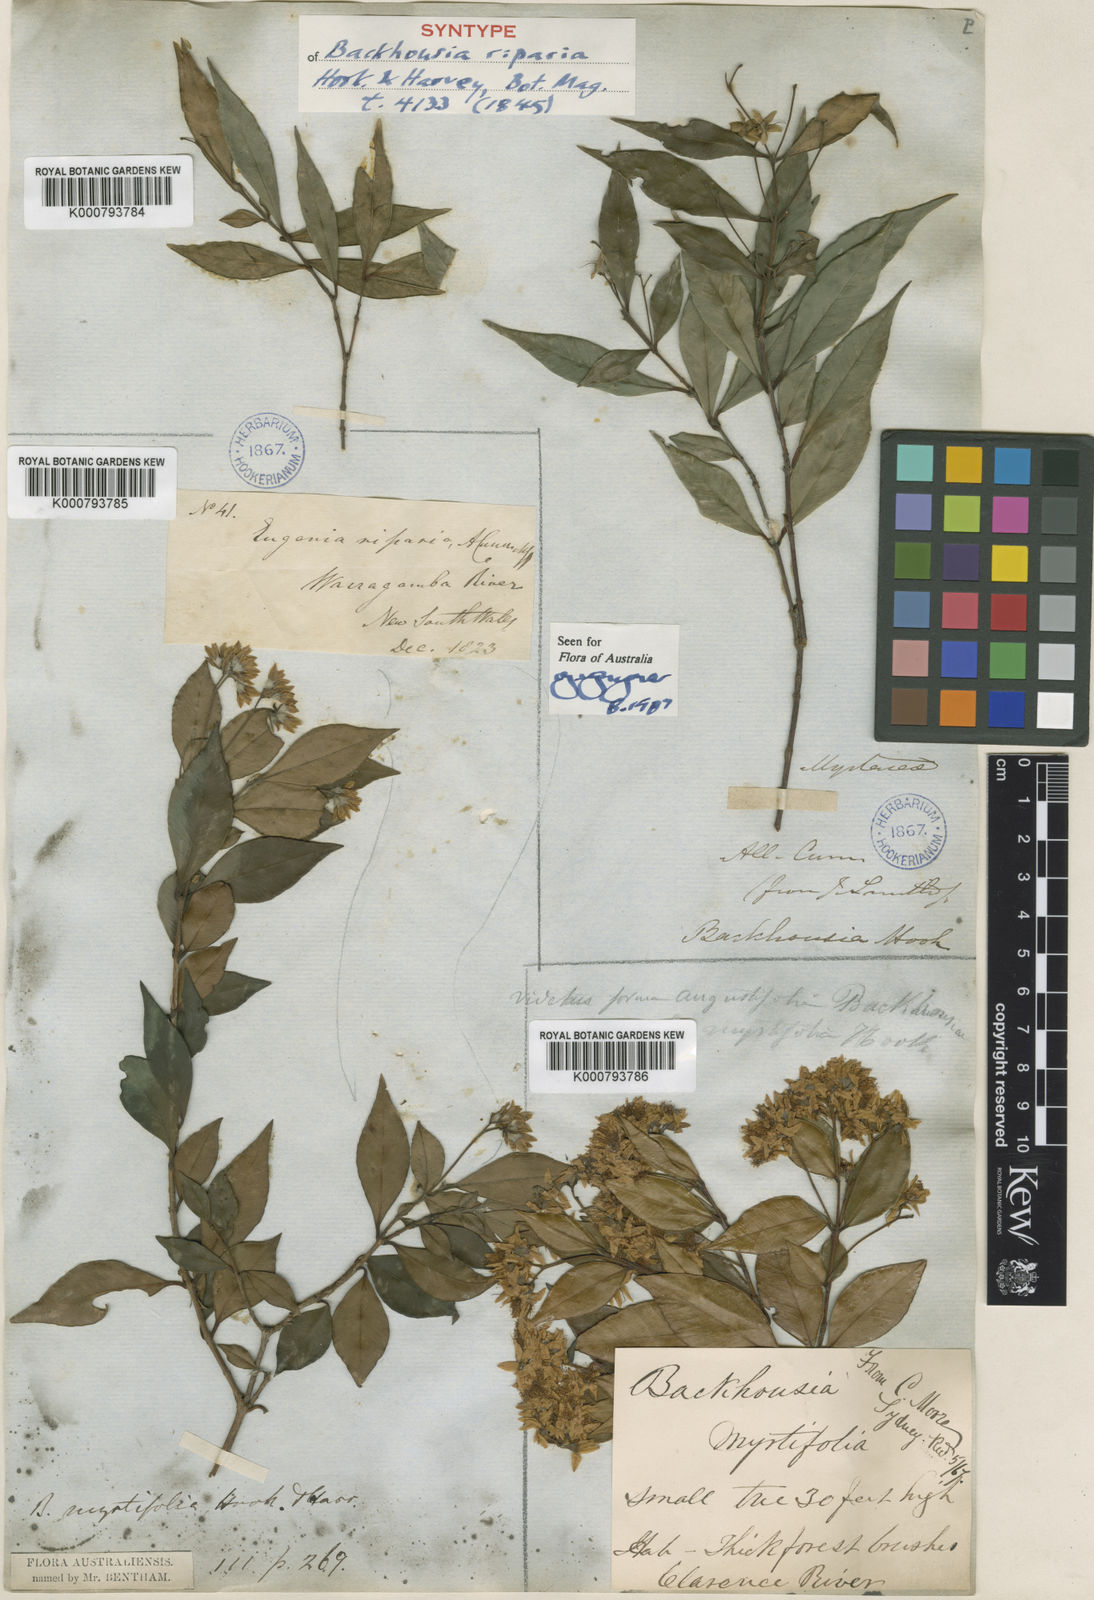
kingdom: Plantae
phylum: Tracheophyta
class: Magnoliopsida
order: Myrtales
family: Myrtaceae
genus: Backhousia
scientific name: Backhousia myrtifolia
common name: Carrol
